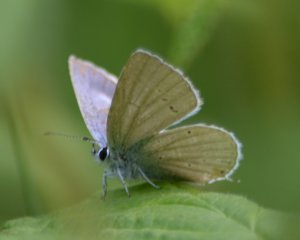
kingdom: Animalia
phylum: Arthropoda
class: Insecta
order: Lepidoptera
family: Lycaenidae
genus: Elkalyce
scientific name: Elkalyce amyntula
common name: Western Tailed-Blue
